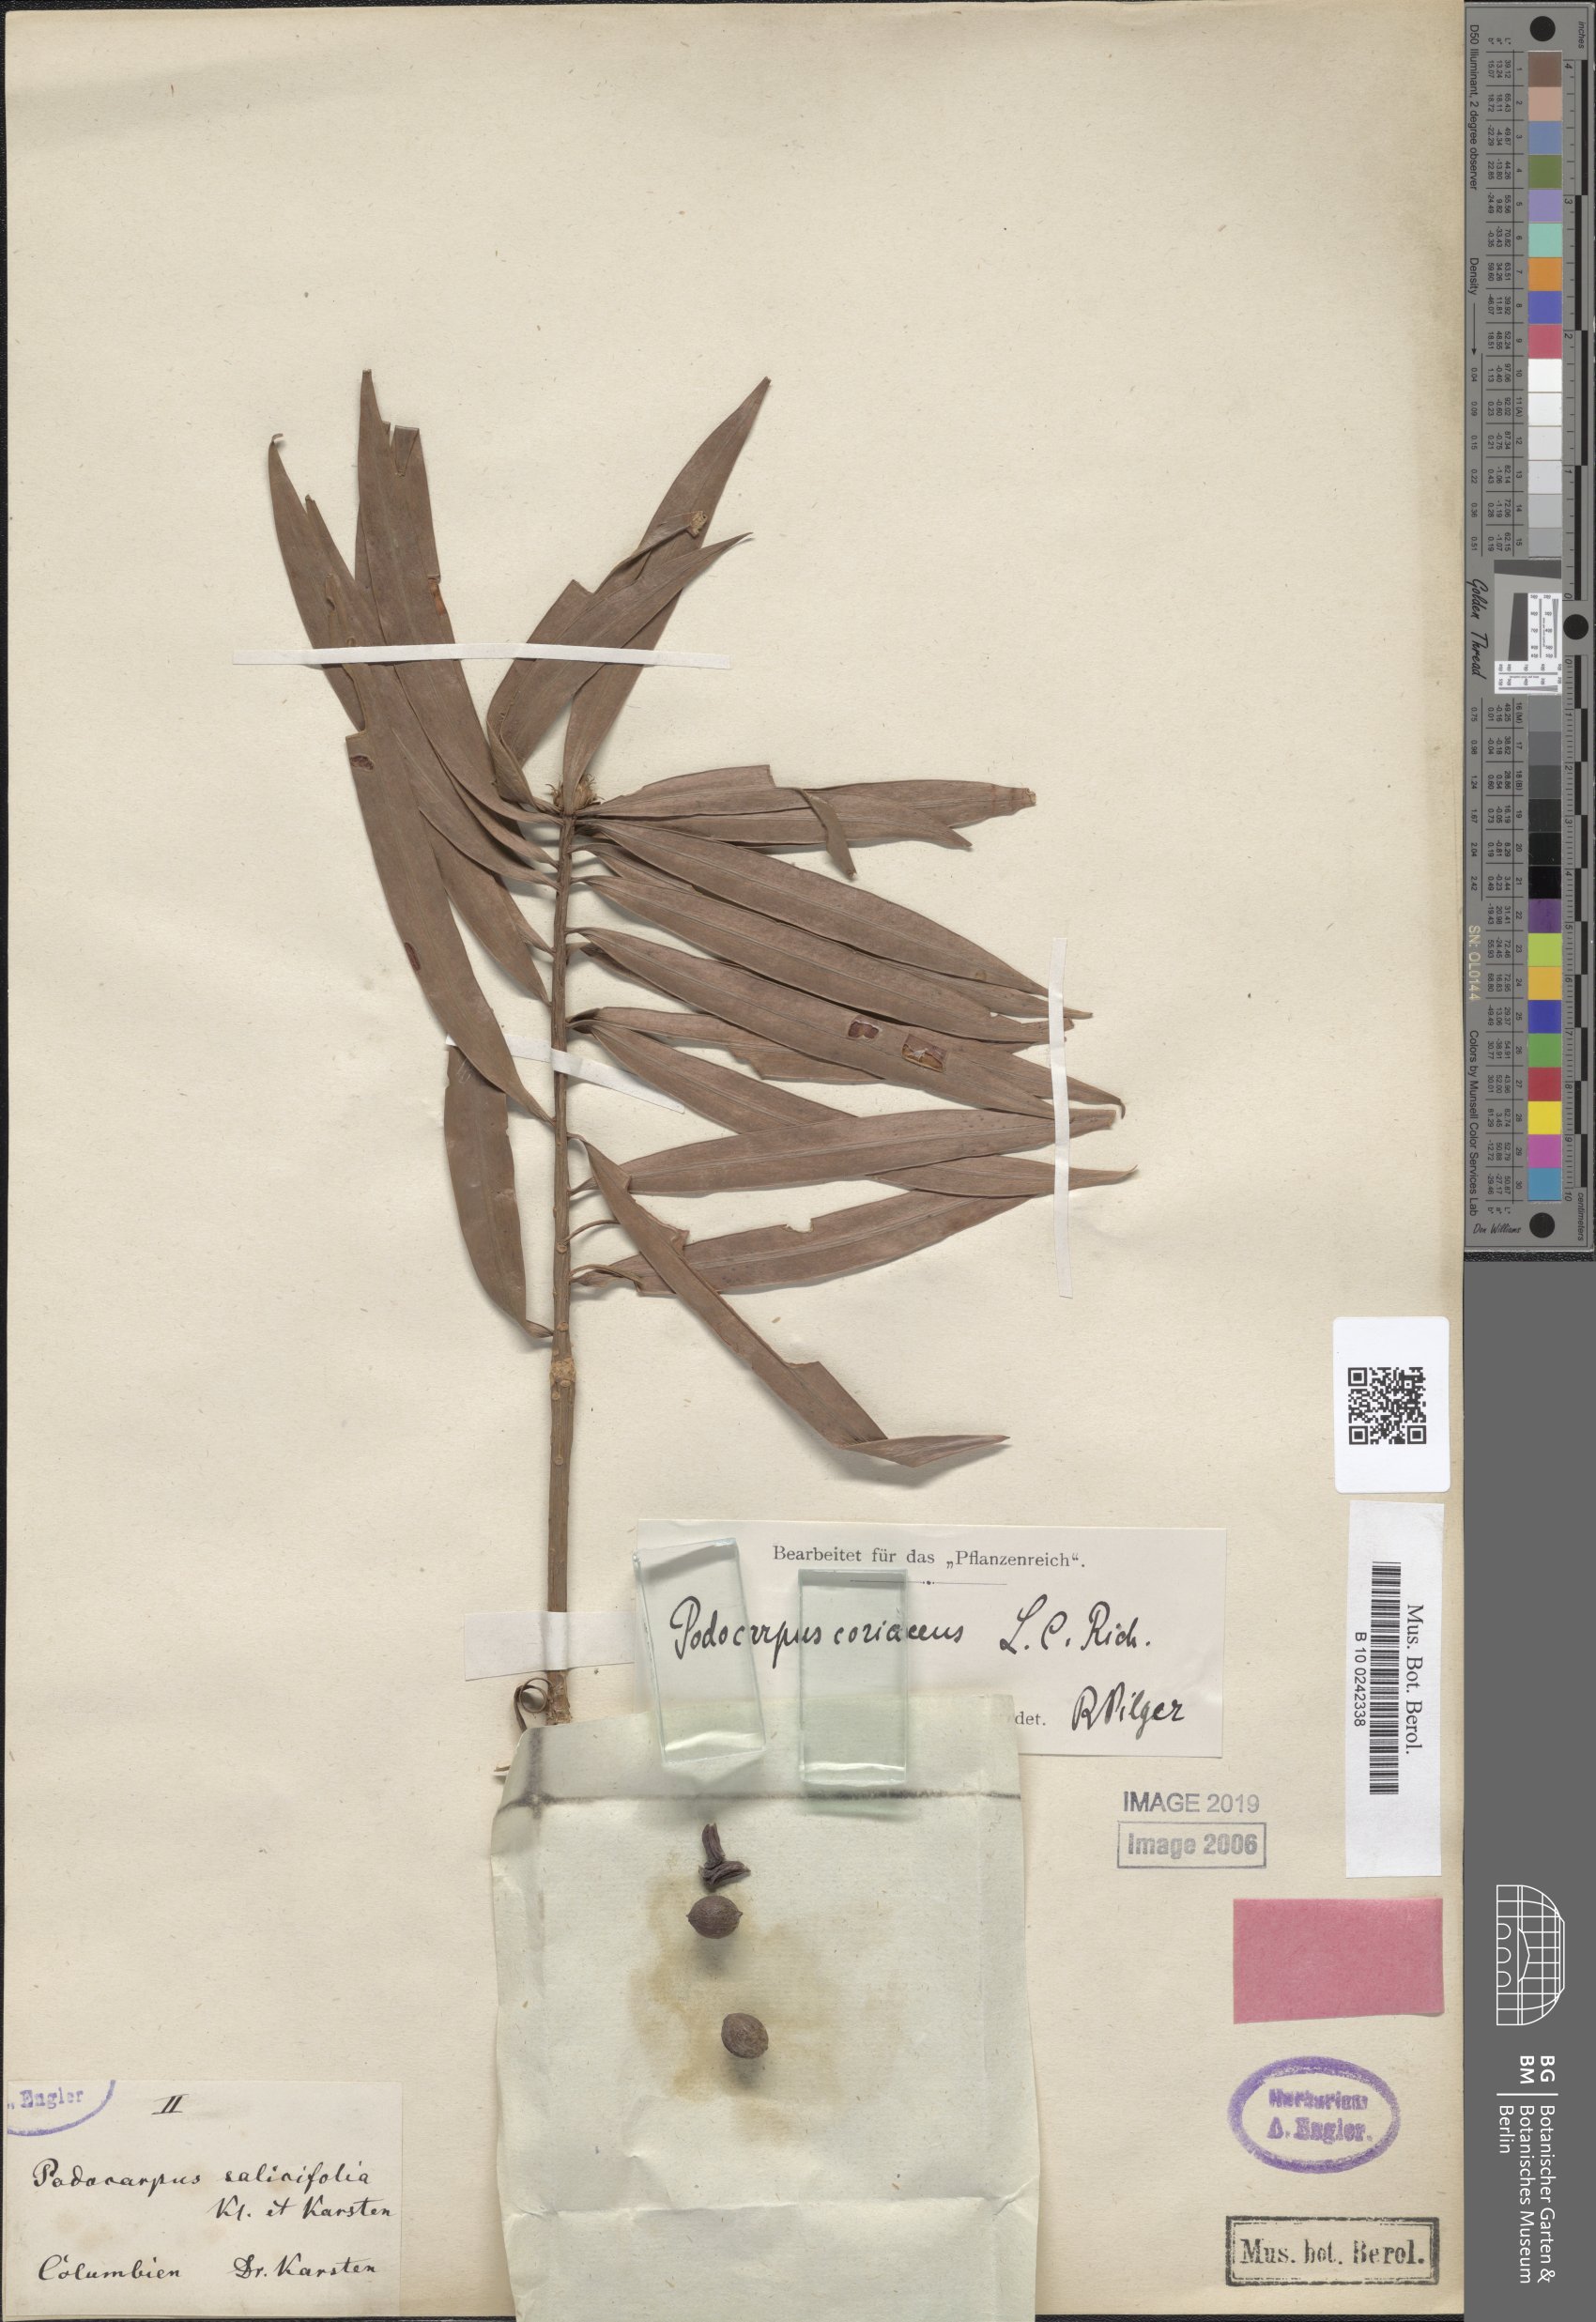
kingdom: Plantae
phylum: Tracheophyta
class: Pinopsida
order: Pinales
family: Podocarpaceae
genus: Podocarpus
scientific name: Podocarpus salicifolius
